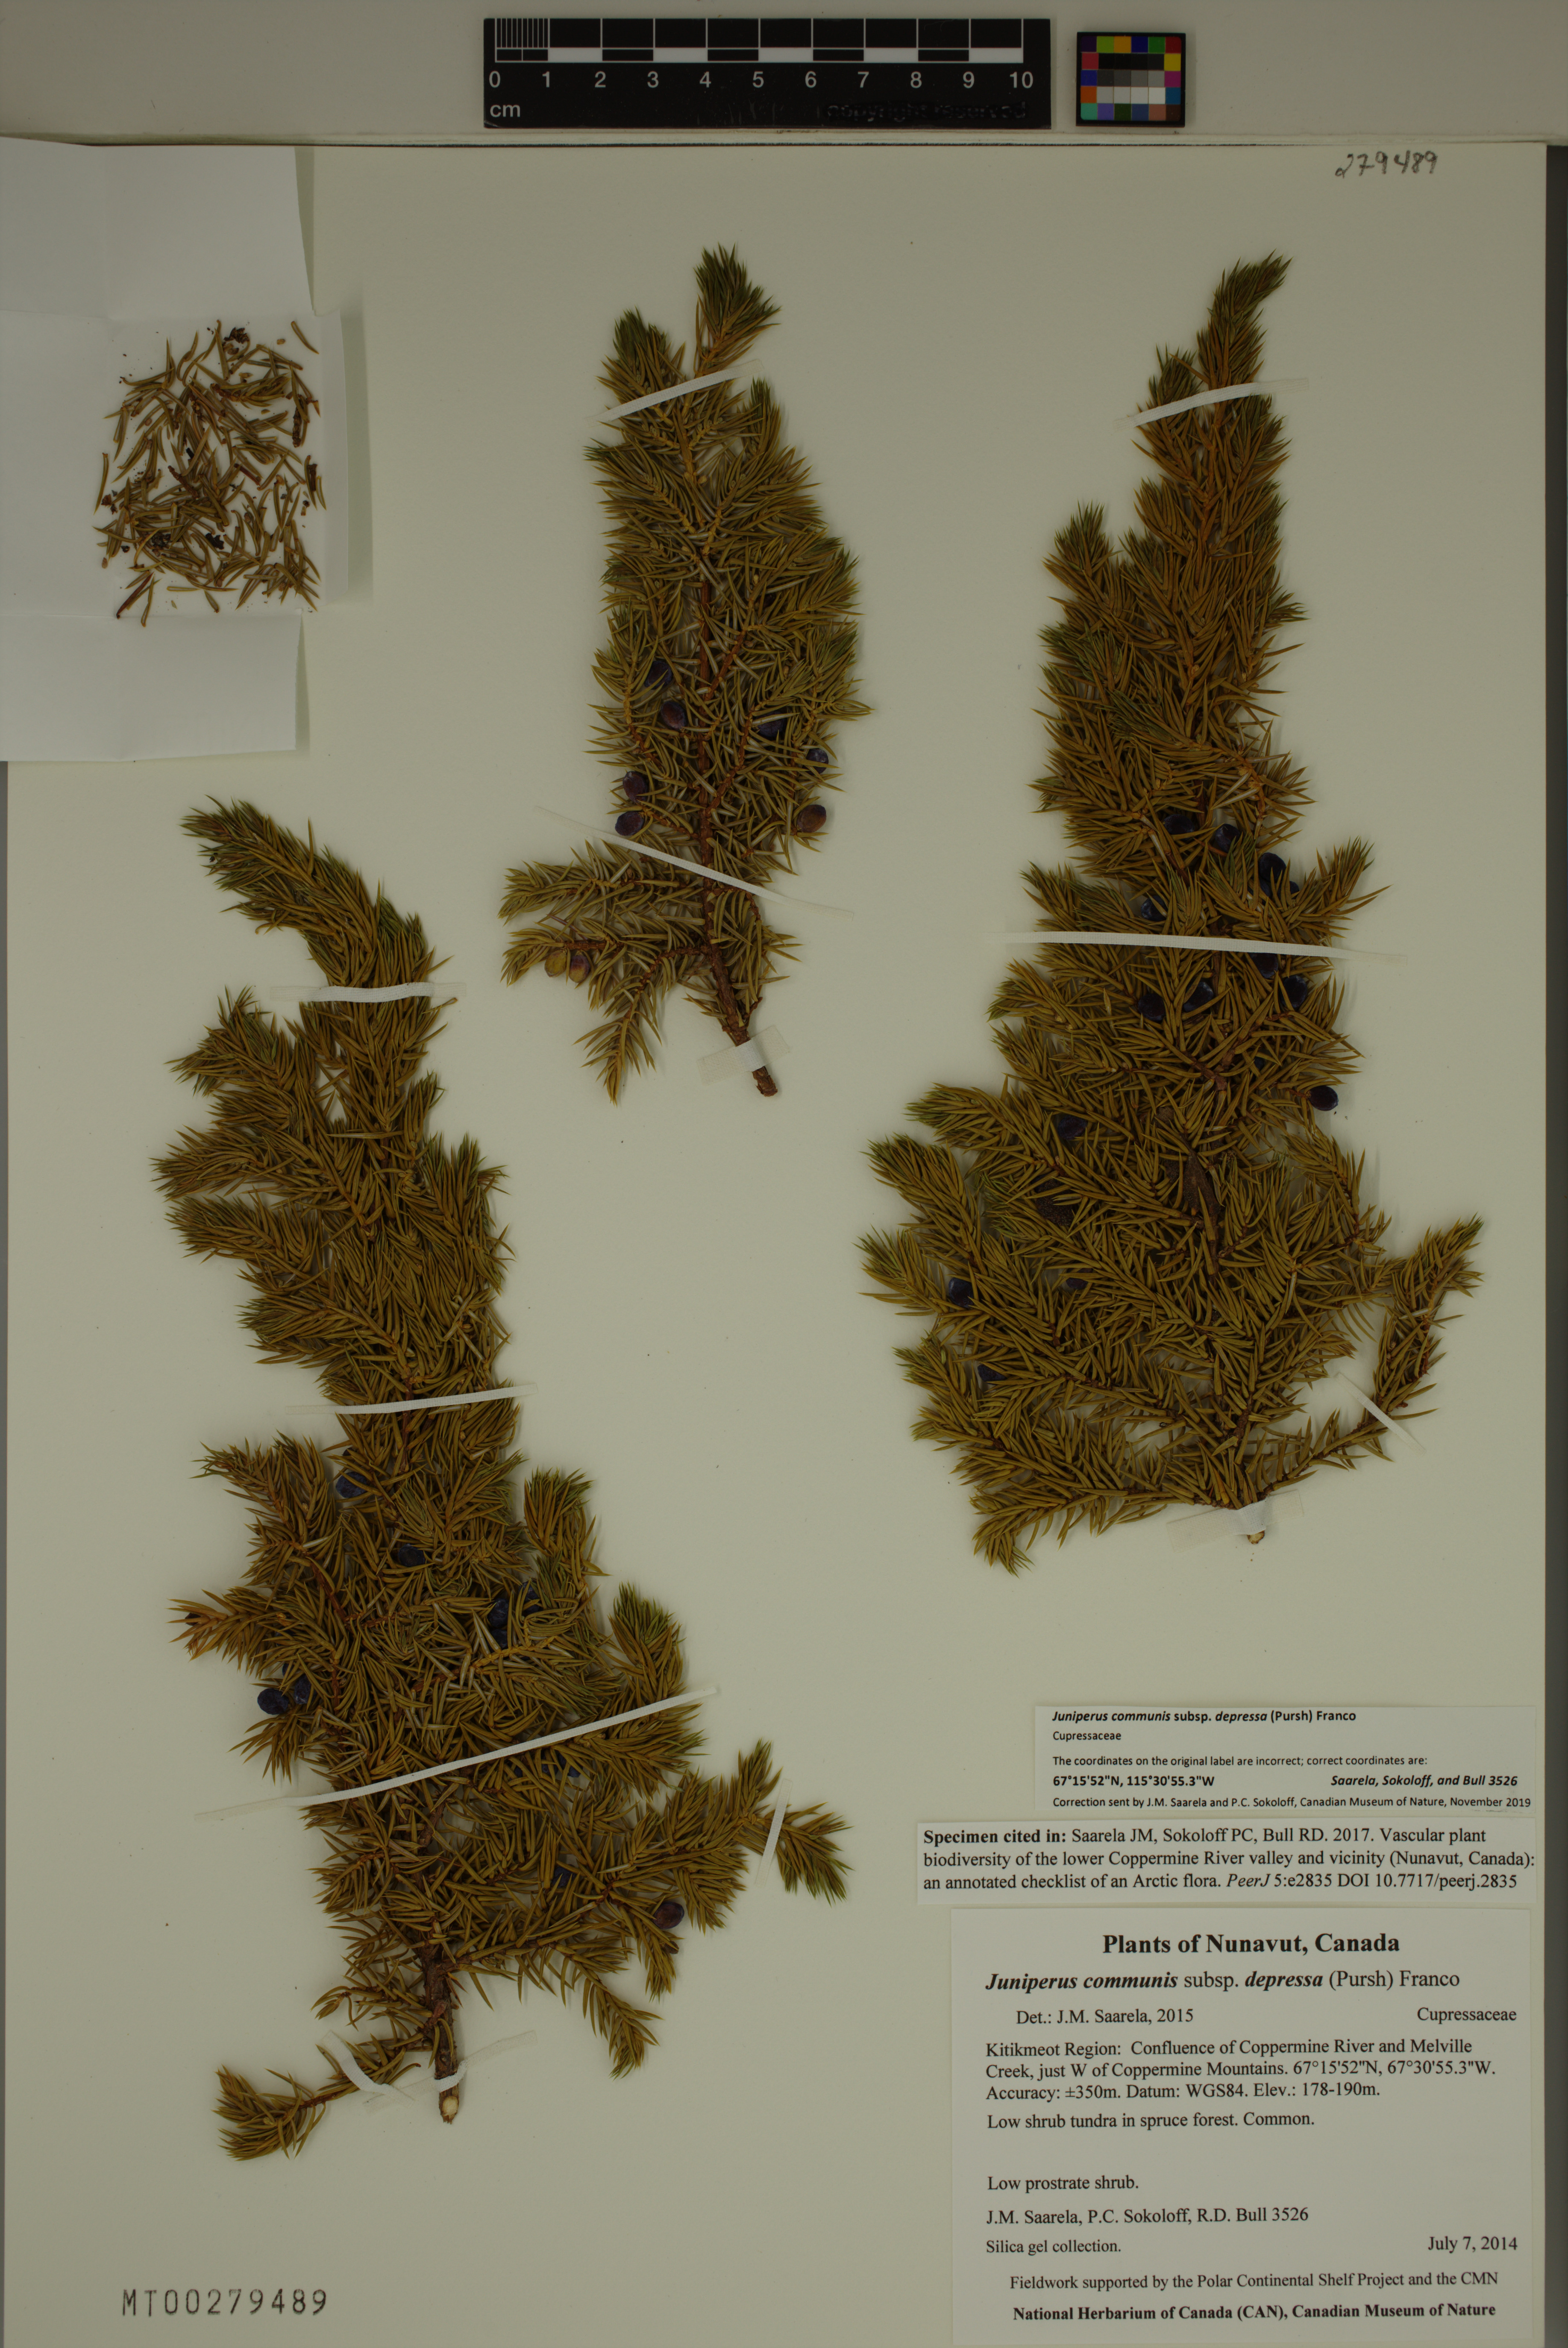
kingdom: Plantae
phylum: Tracheophyta
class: Pinopsida
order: Pinales
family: Cupressaceae
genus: Juniperus
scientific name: Juniperus communis
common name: Common juniper
